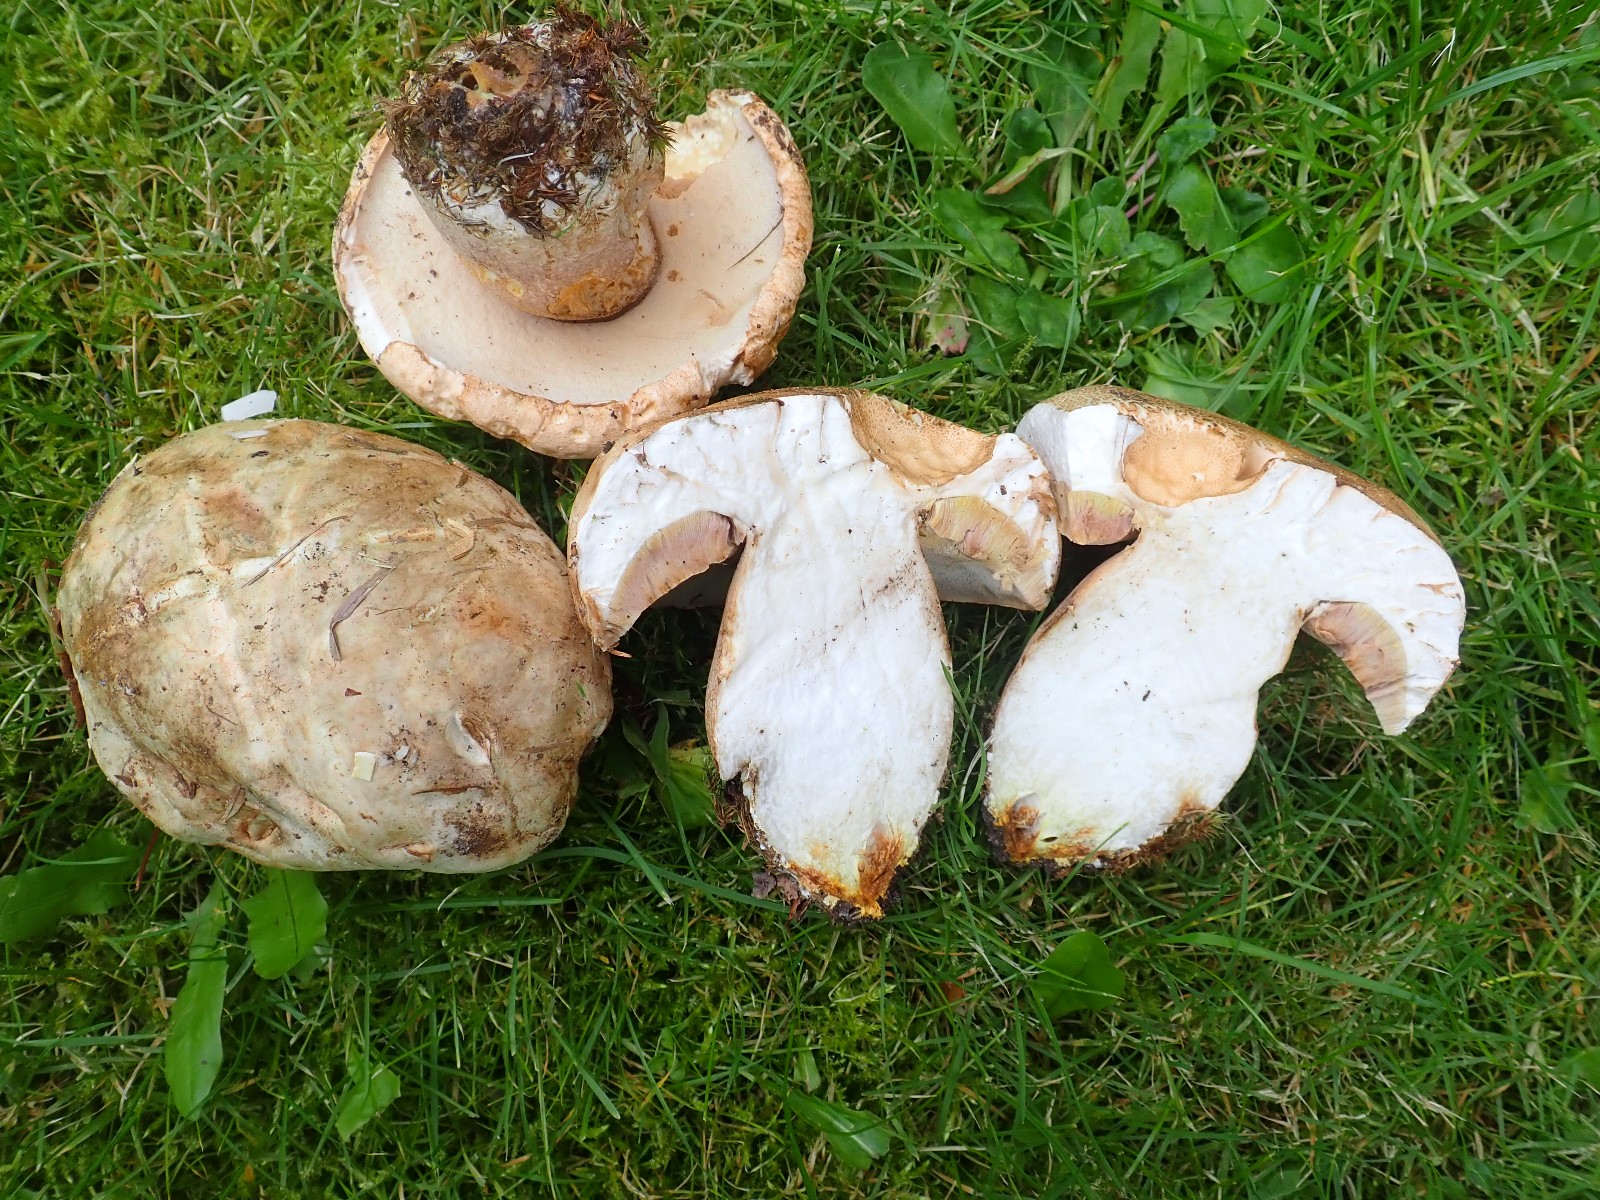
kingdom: Fungi
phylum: Basidiomycota
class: Agaricomycetes
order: Boletales
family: Boletaceae
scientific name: Boletaceae
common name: rørhatfamilien
